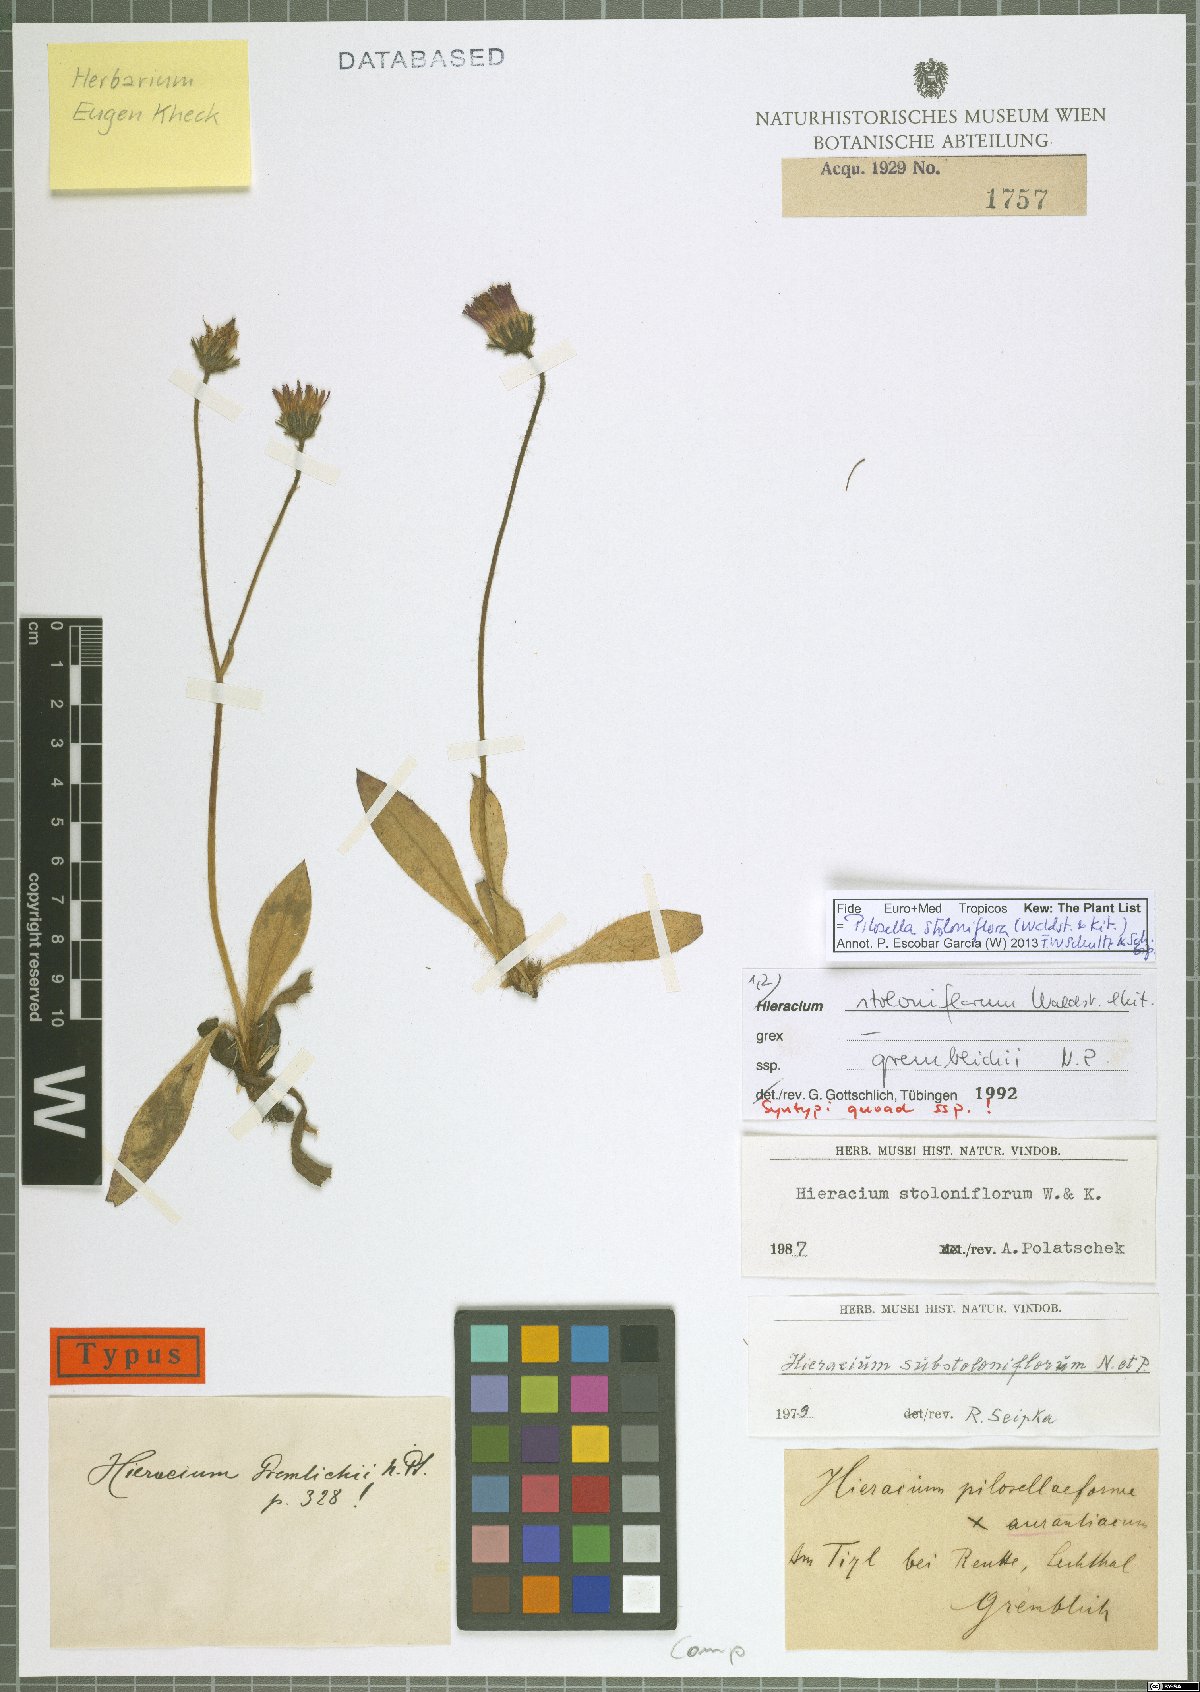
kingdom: Plantae
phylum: Tracheophyta
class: Magnoliopsida
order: Asterales
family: Asteraceae
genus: Pilosella
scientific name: Pilosella stoloniflora
